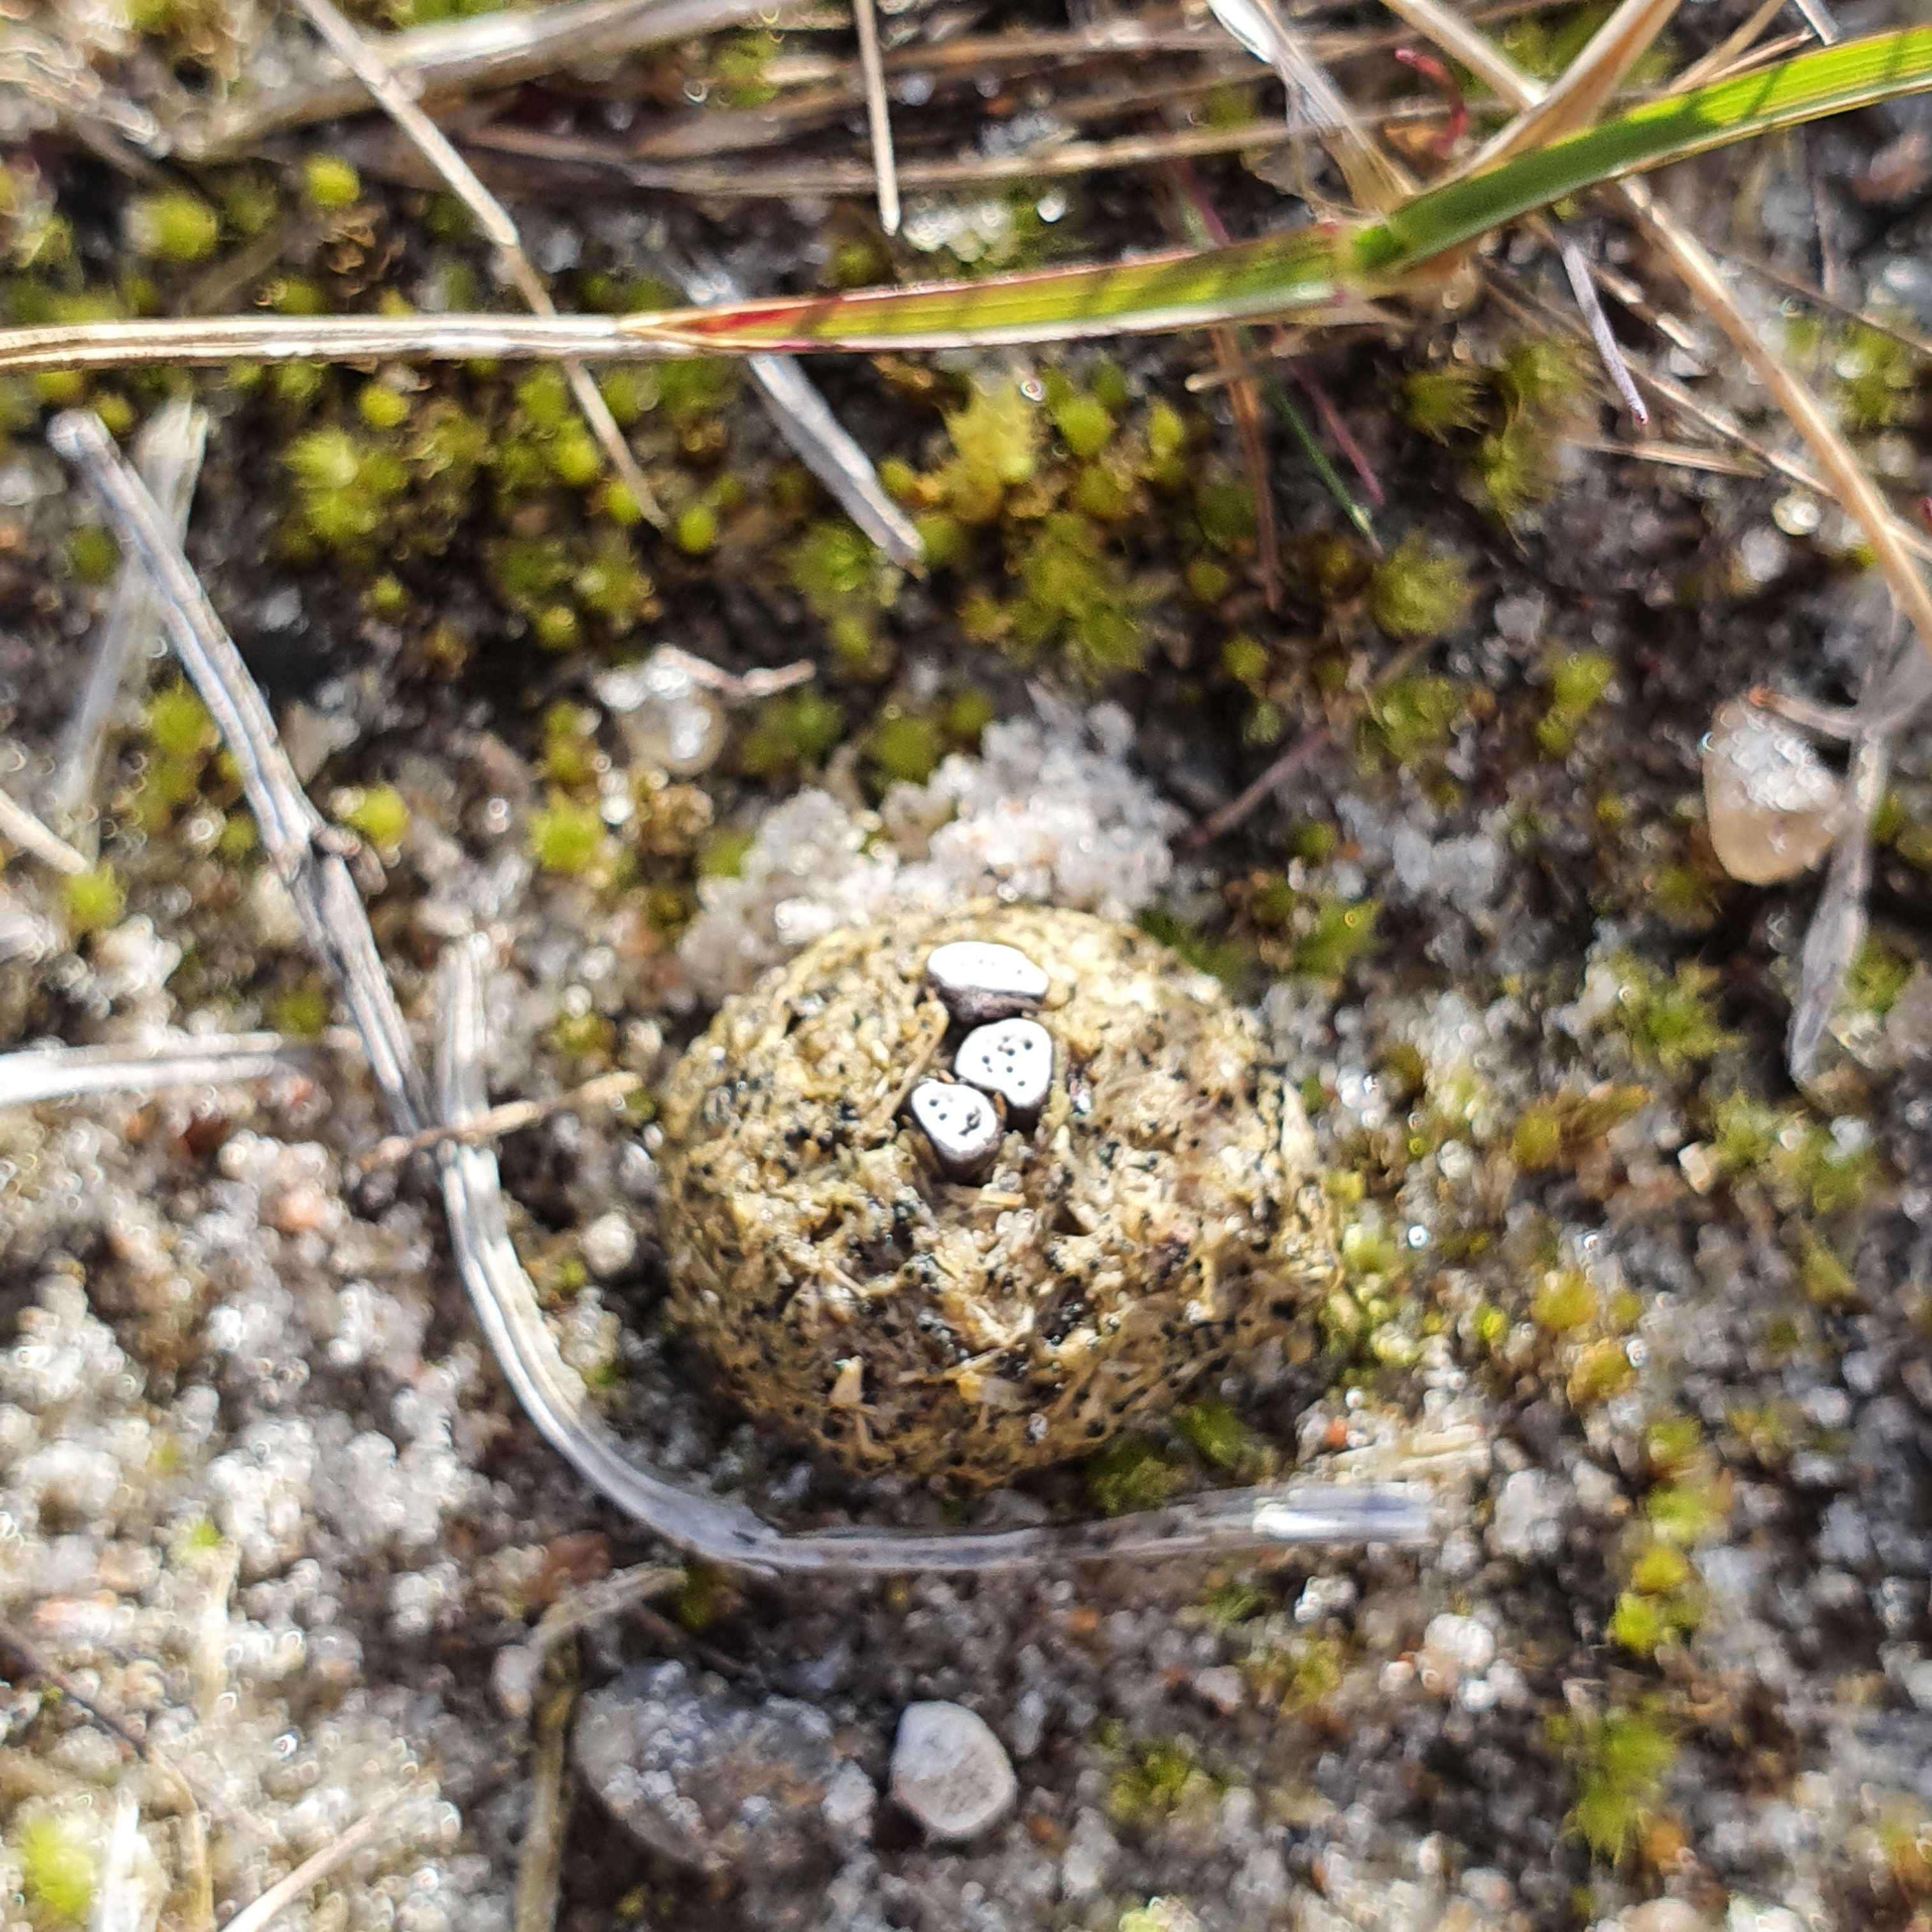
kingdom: Fungi
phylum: Ascomycota
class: Sordariomycetes
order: Xylariales
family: Xylariaceae
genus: Poronia
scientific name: Poronia erici
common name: hare-priksvamp
